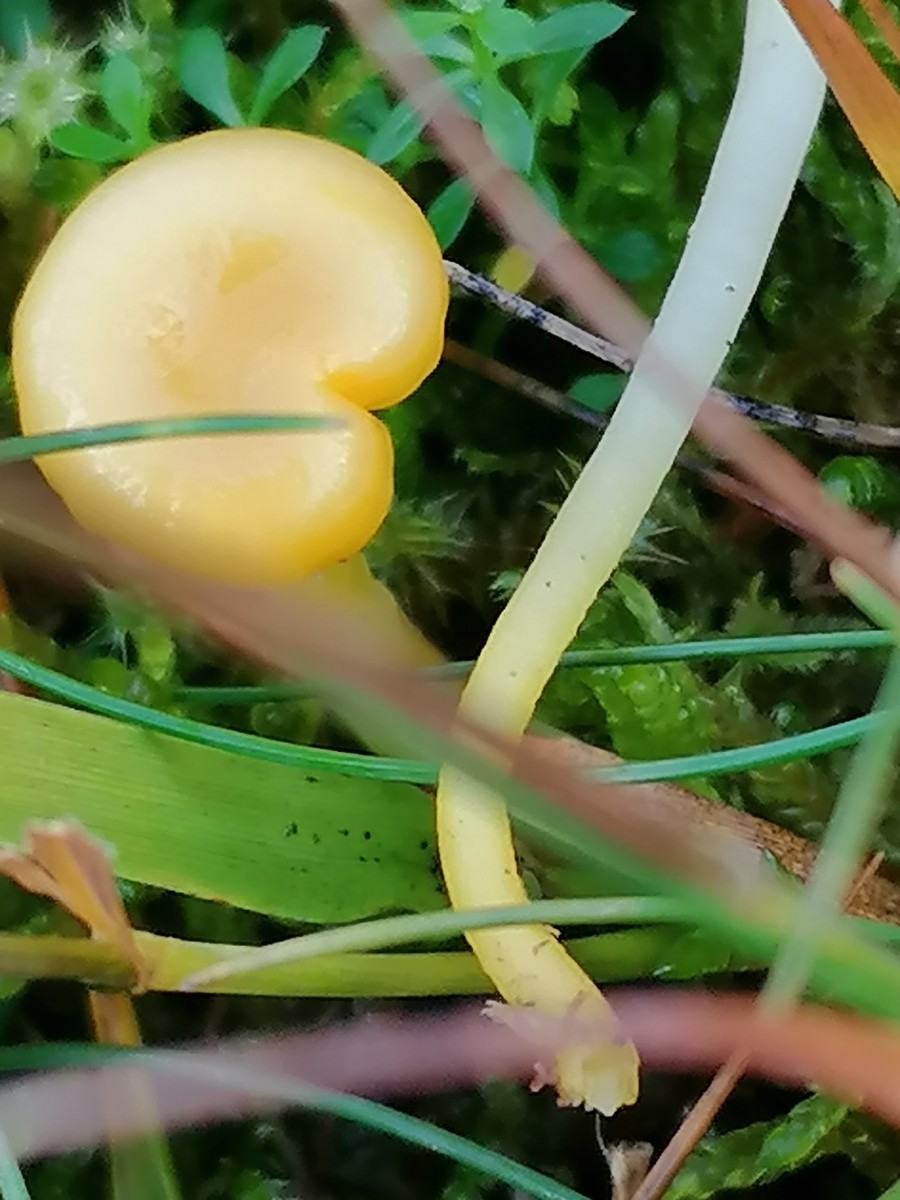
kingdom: Fungi
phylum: Basidiomycota
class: Agaricomycetes
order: Agaricales
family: Hygrophoraceae
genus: Gloioxanthomyces
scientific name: Gloioxanthomyces vitellinus
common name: kromgul vokshat
